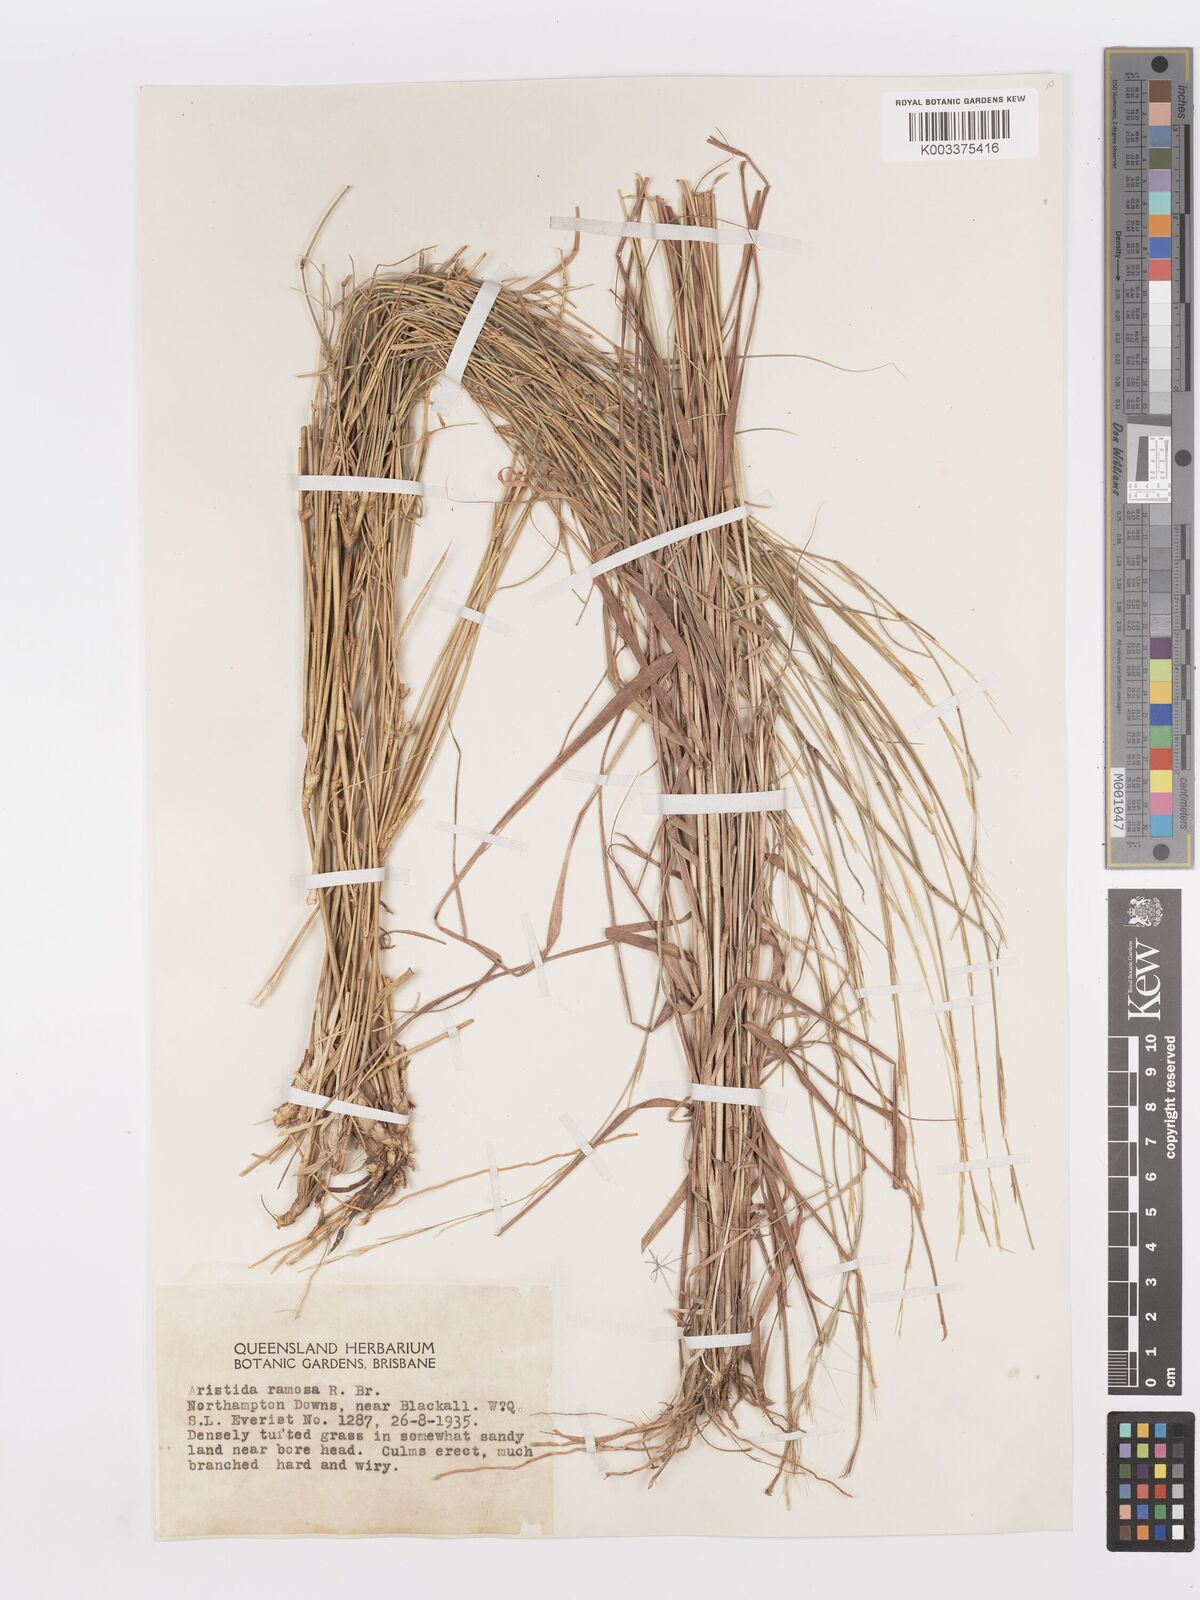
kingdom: Plantae
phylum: Tracheophyta
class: Liliopsida
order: Poales
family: Poaceae
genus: Aristida
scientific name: Aristida ramosa
